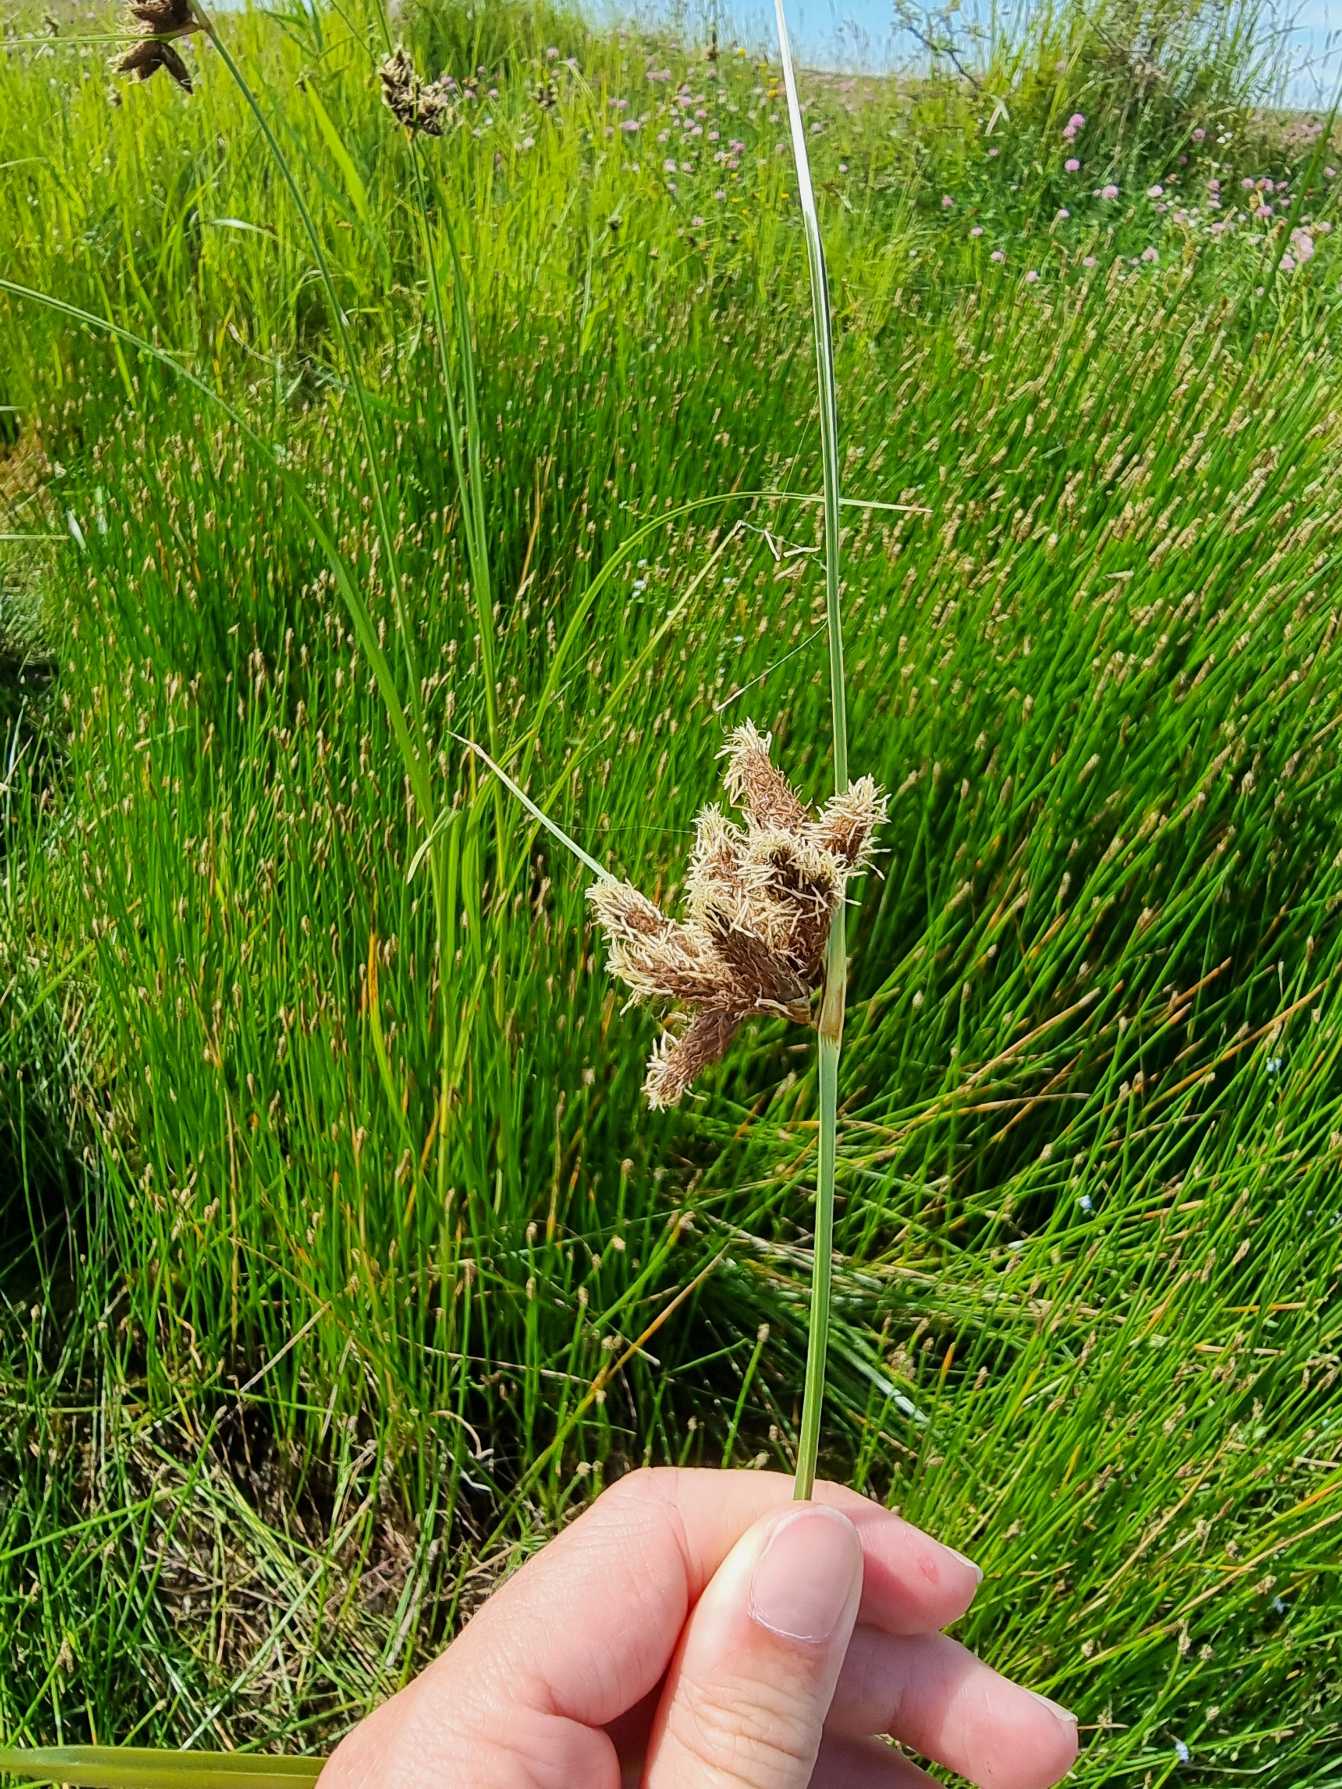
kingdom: Plantae
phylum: Tracheophyta
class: Liliopsida
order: Poales
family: Cyperaceae
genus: Bolboschoenus
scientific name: Bolboschoenus maritimus
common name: Strand-kogleaks
